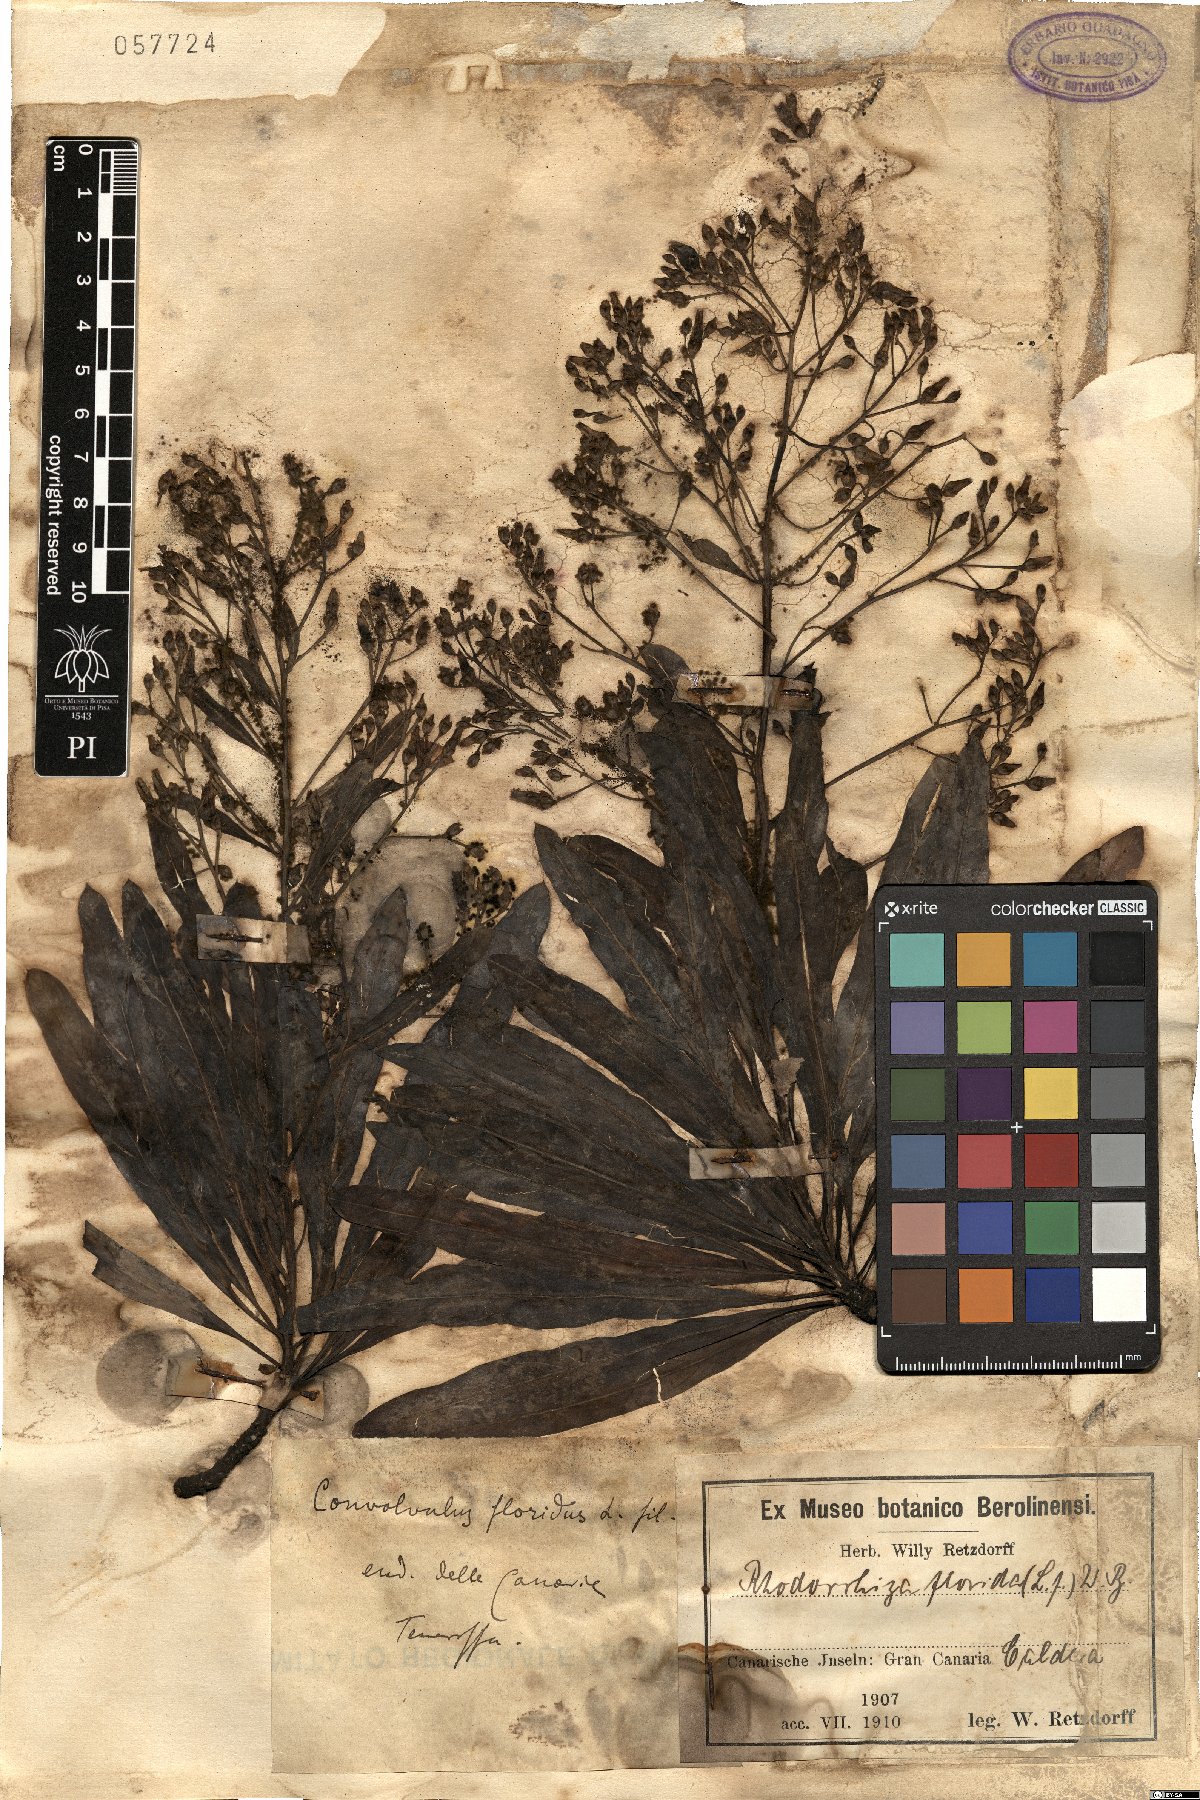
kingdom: Plantae
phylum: Tracheophyta
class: Magnoliopsida
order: Solanales
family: Convolvulaceae
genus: Convolvulus
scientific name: Convolvulus floridus
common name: Guadil
